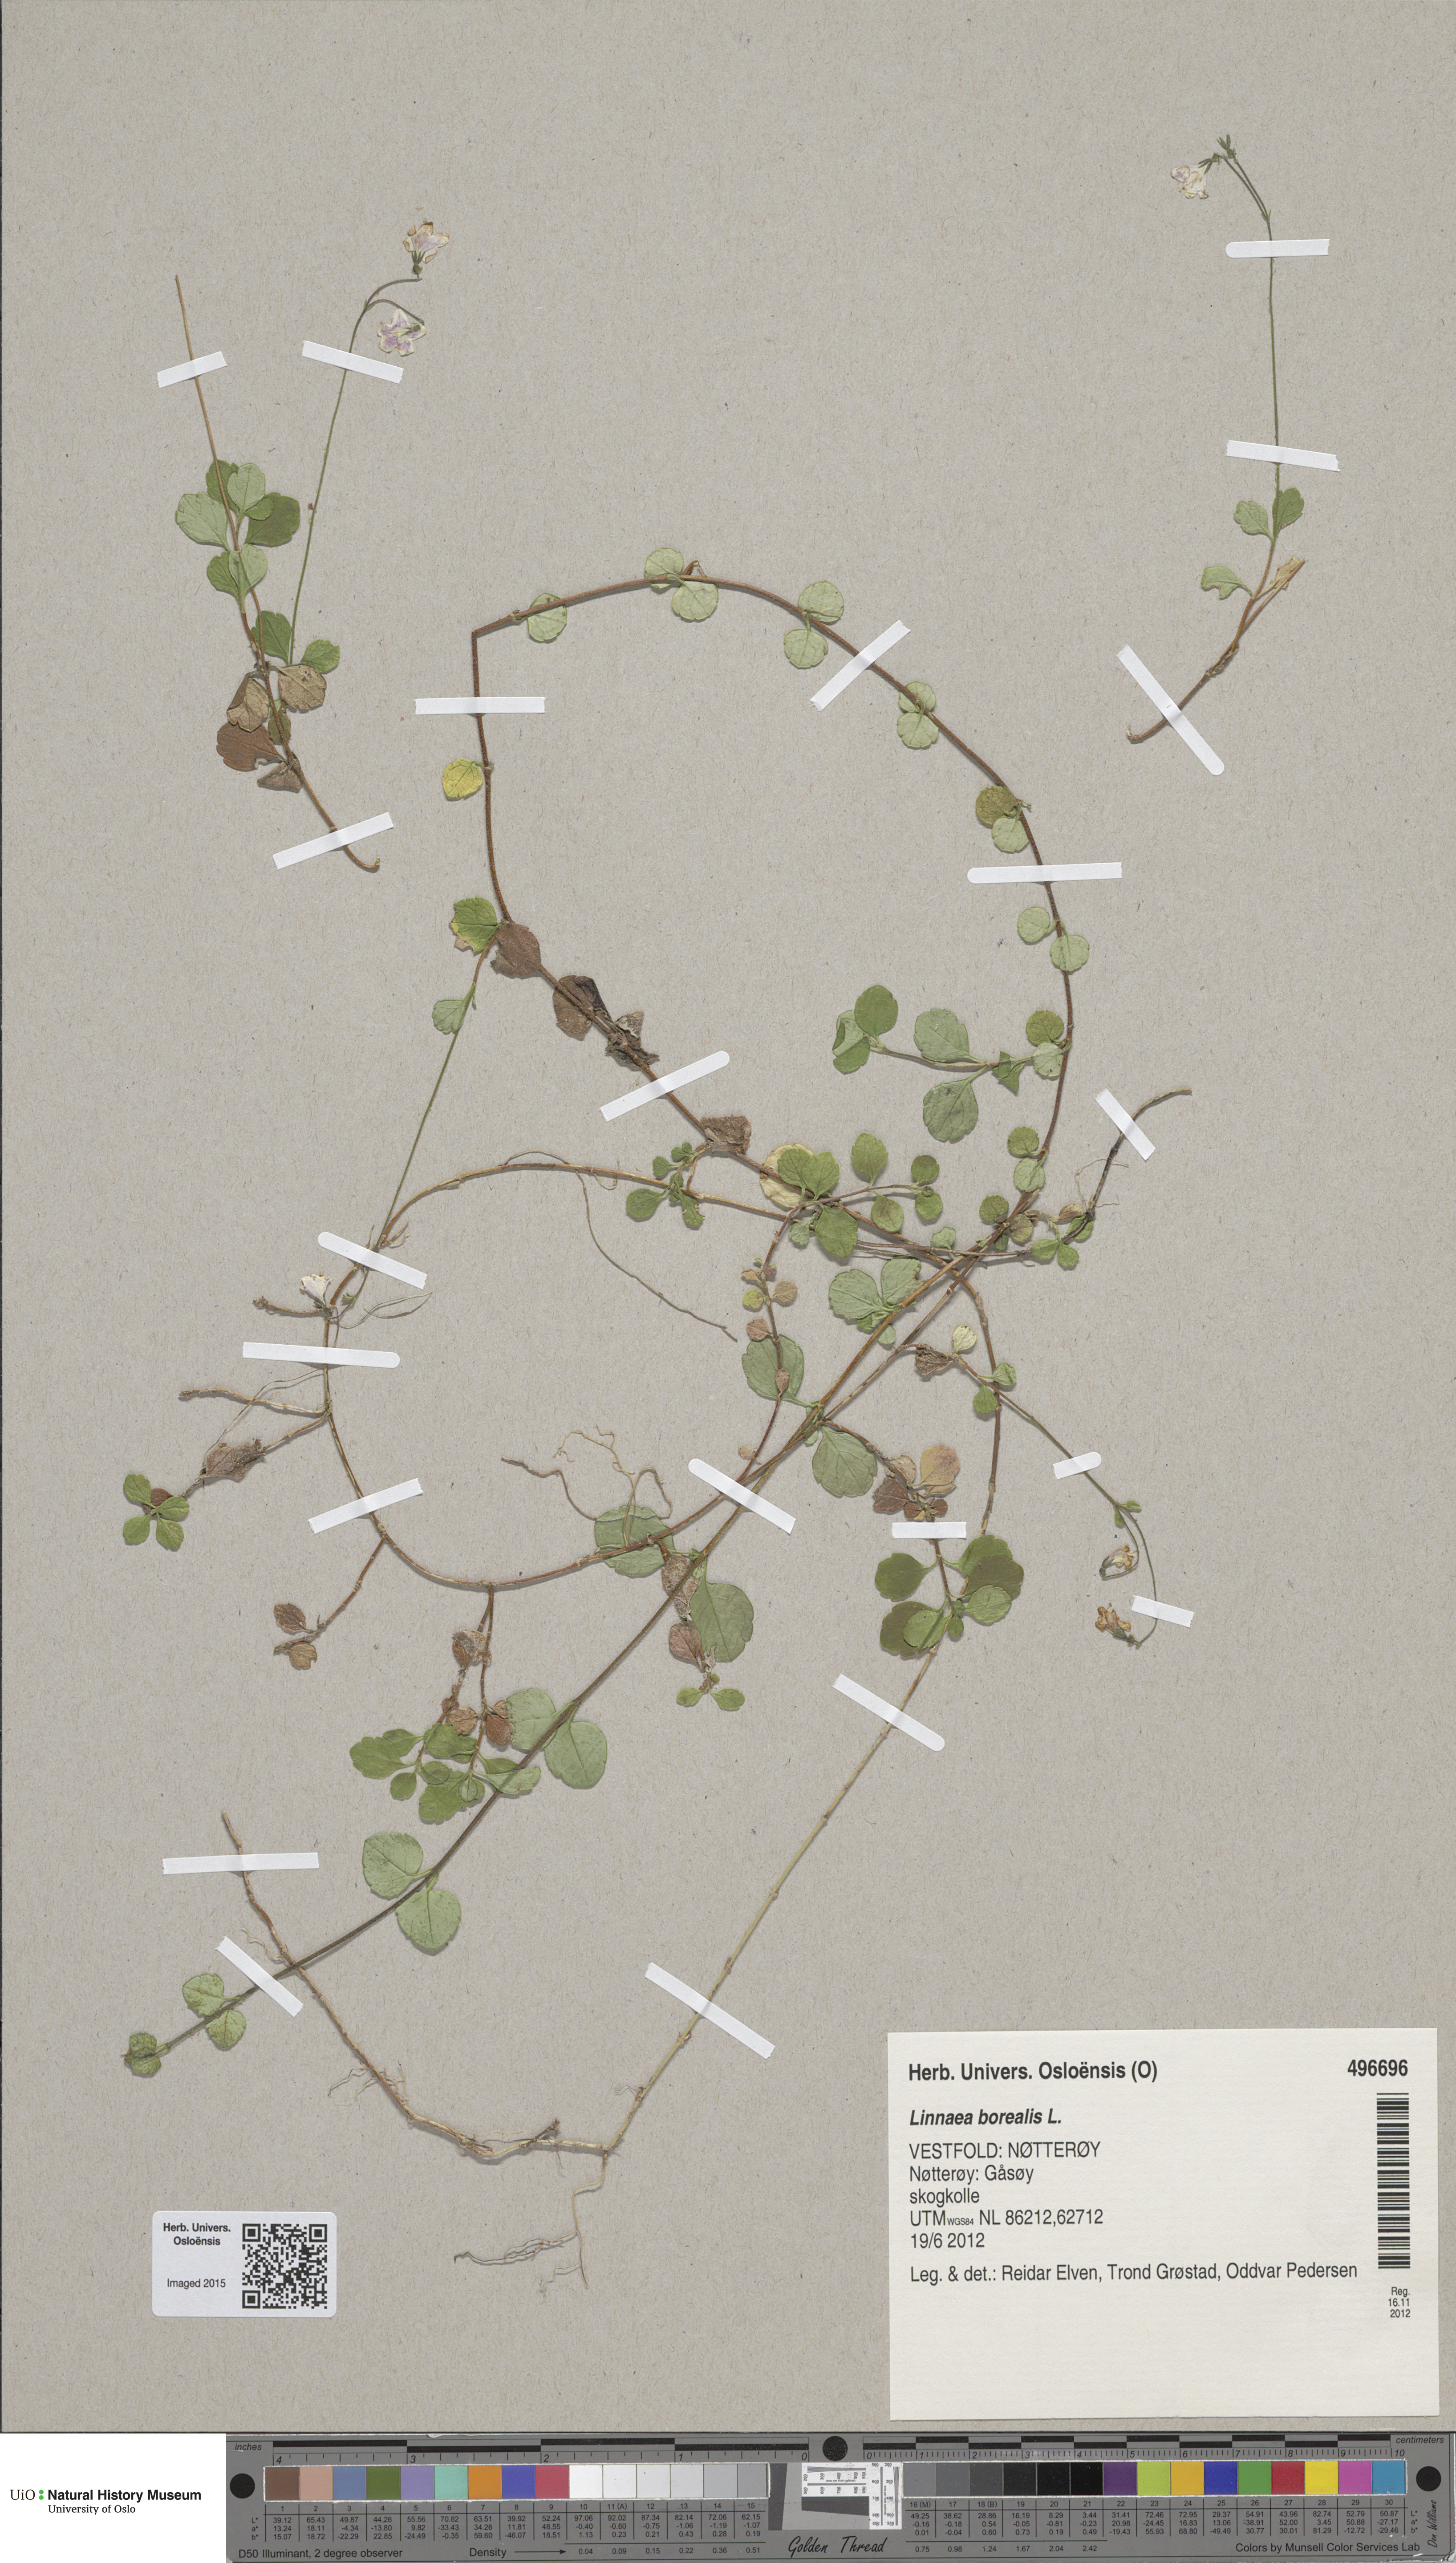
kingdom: Plantae
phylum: Tracheophyta
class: Magnoliopsida
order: Dipsacales
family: Caprifoliaceae
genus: Linnaea
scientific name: Linnaea borealis
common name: Twinflower
